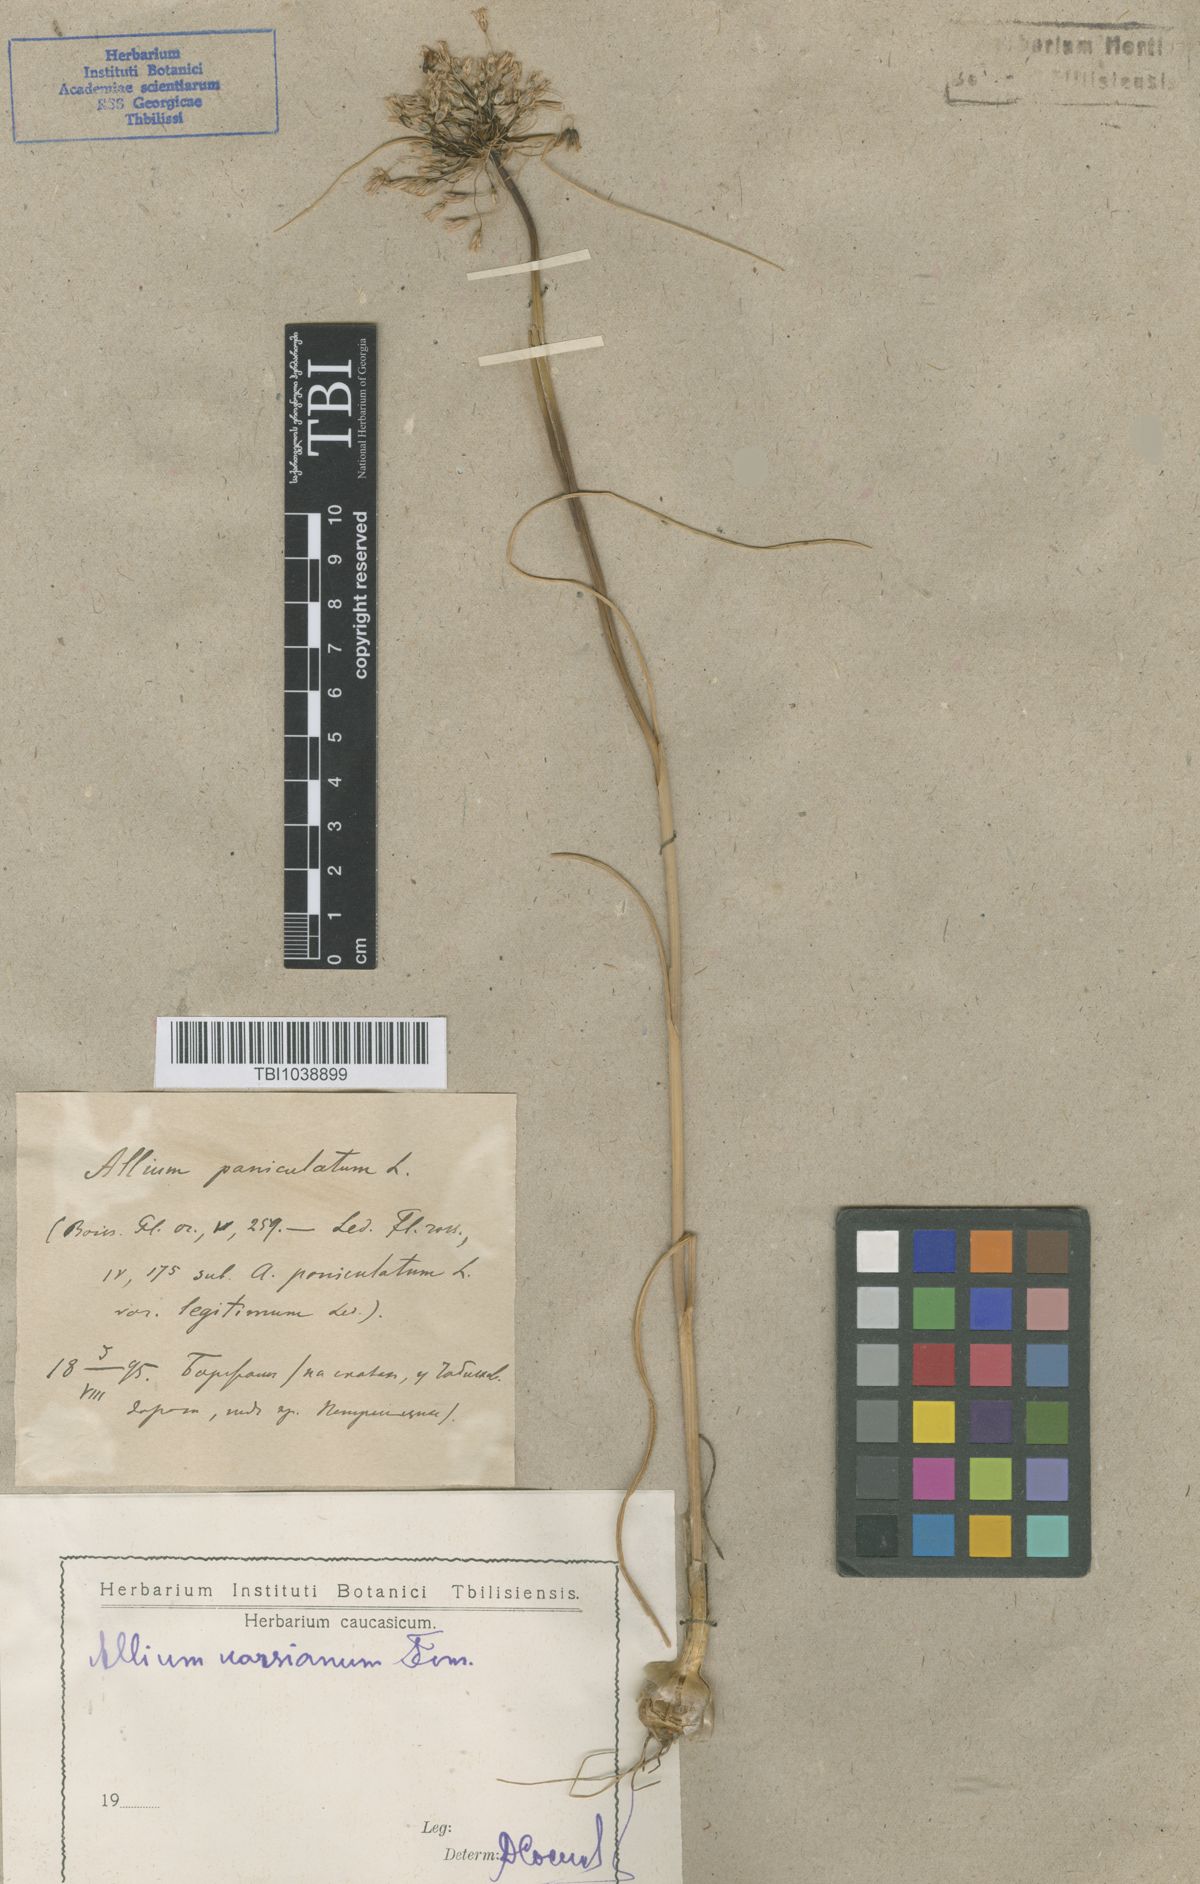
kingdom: Plantae
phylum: Tracheophyta
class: Liliopsida
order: Asparagales
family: Amaryllidaceae
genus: Allium
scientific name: Allium paniculatum
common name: Pale garlic
